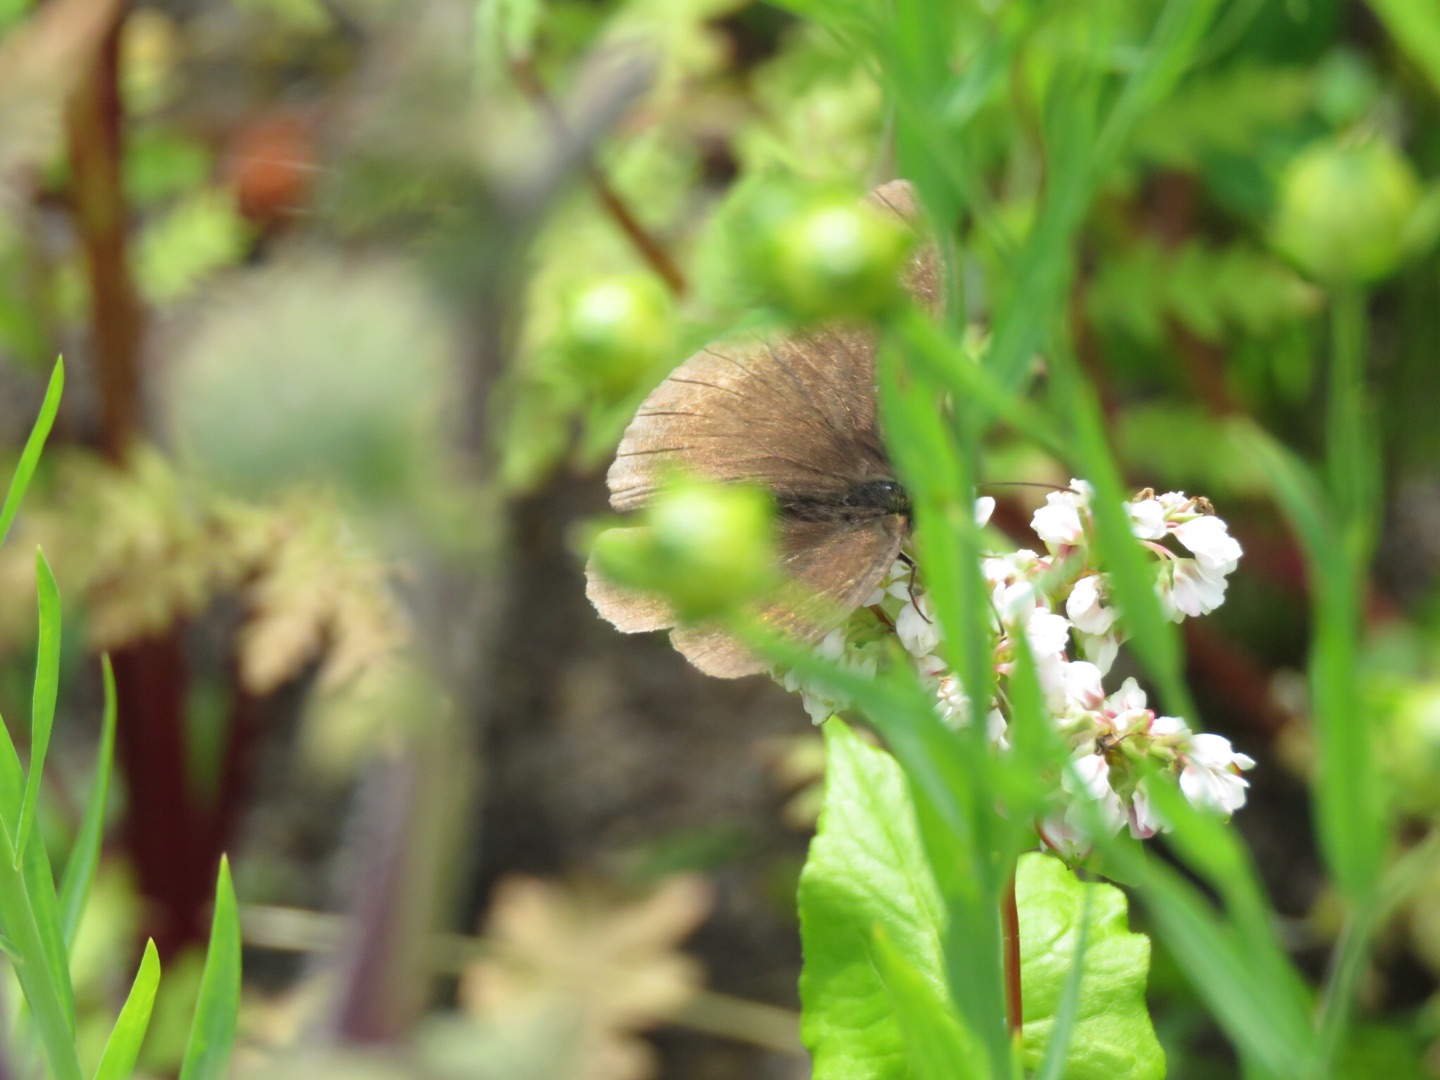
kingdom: Animalia
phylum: Arthropoda
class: Insecta
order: Lepidoptera
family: Nymphalidae
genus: Maniola
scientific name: Maniola jurtina
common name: Græsrandøje
